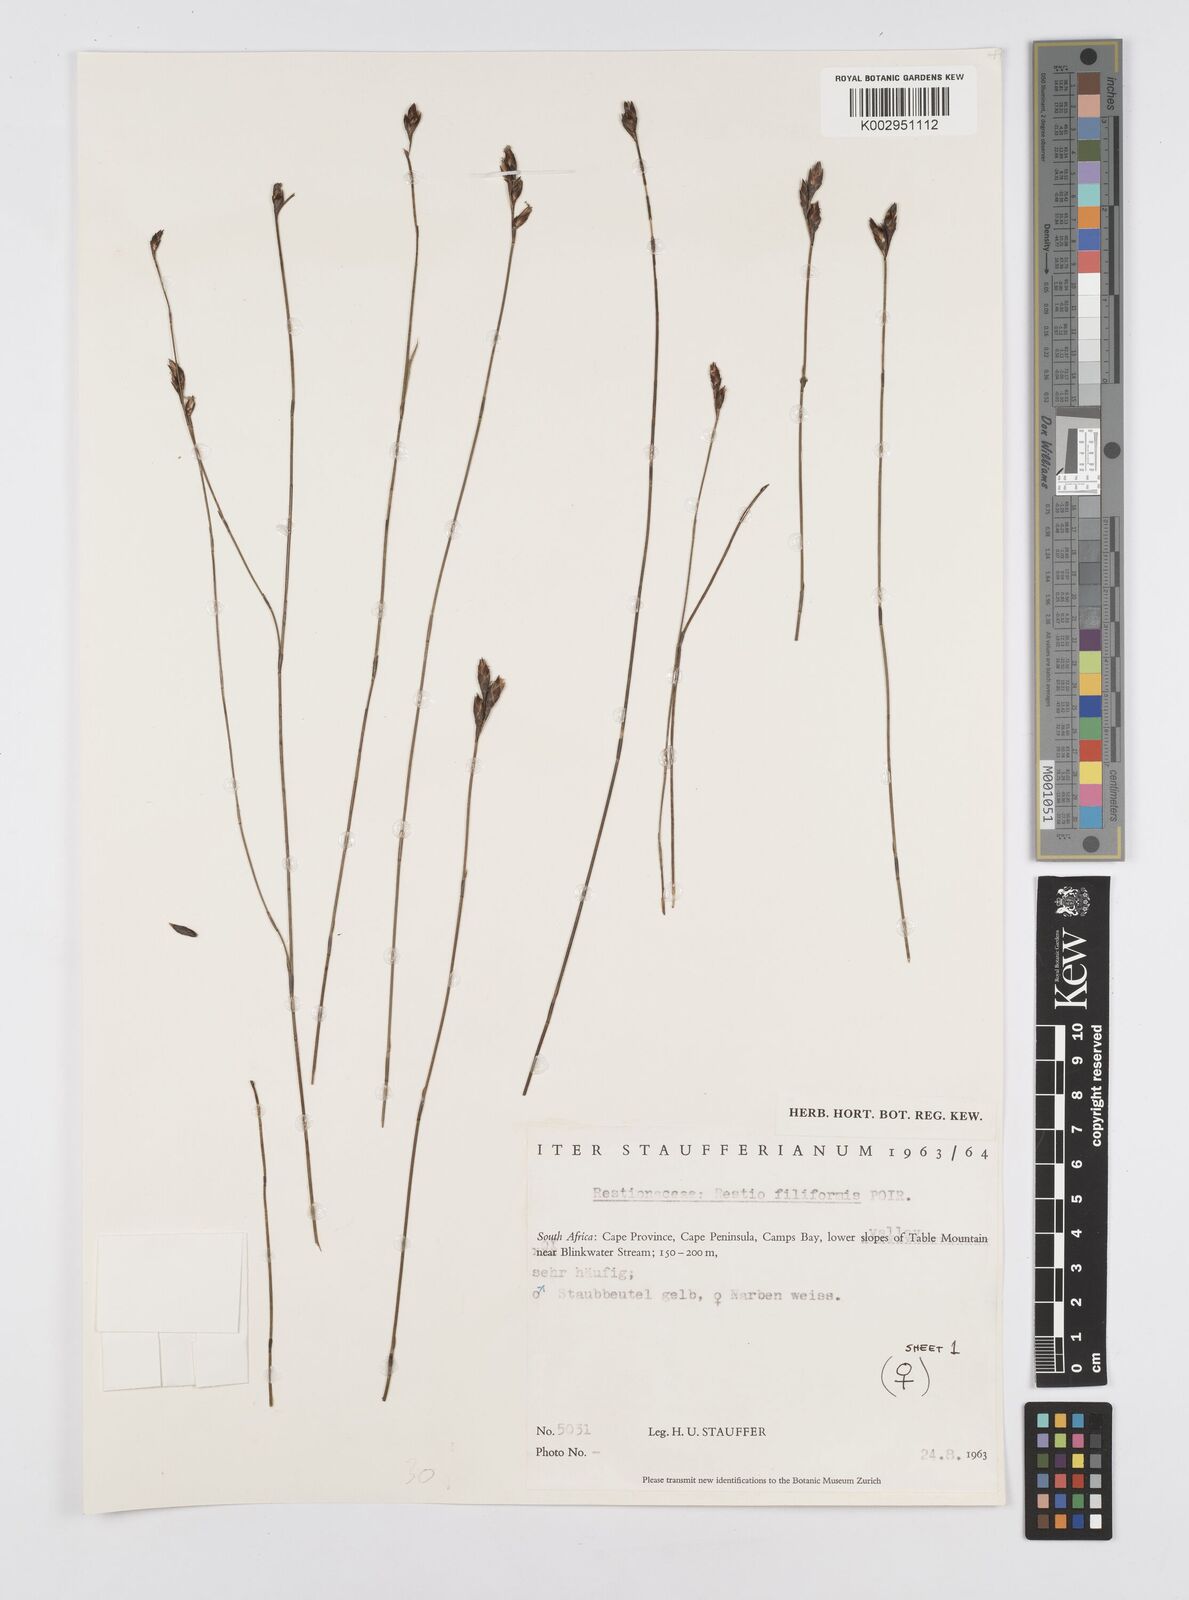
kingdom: Plantae
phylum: Tracheophyta
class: Liliopsida
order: Poales
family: Restionaceae
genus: Restio
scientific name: Restio filiformis
